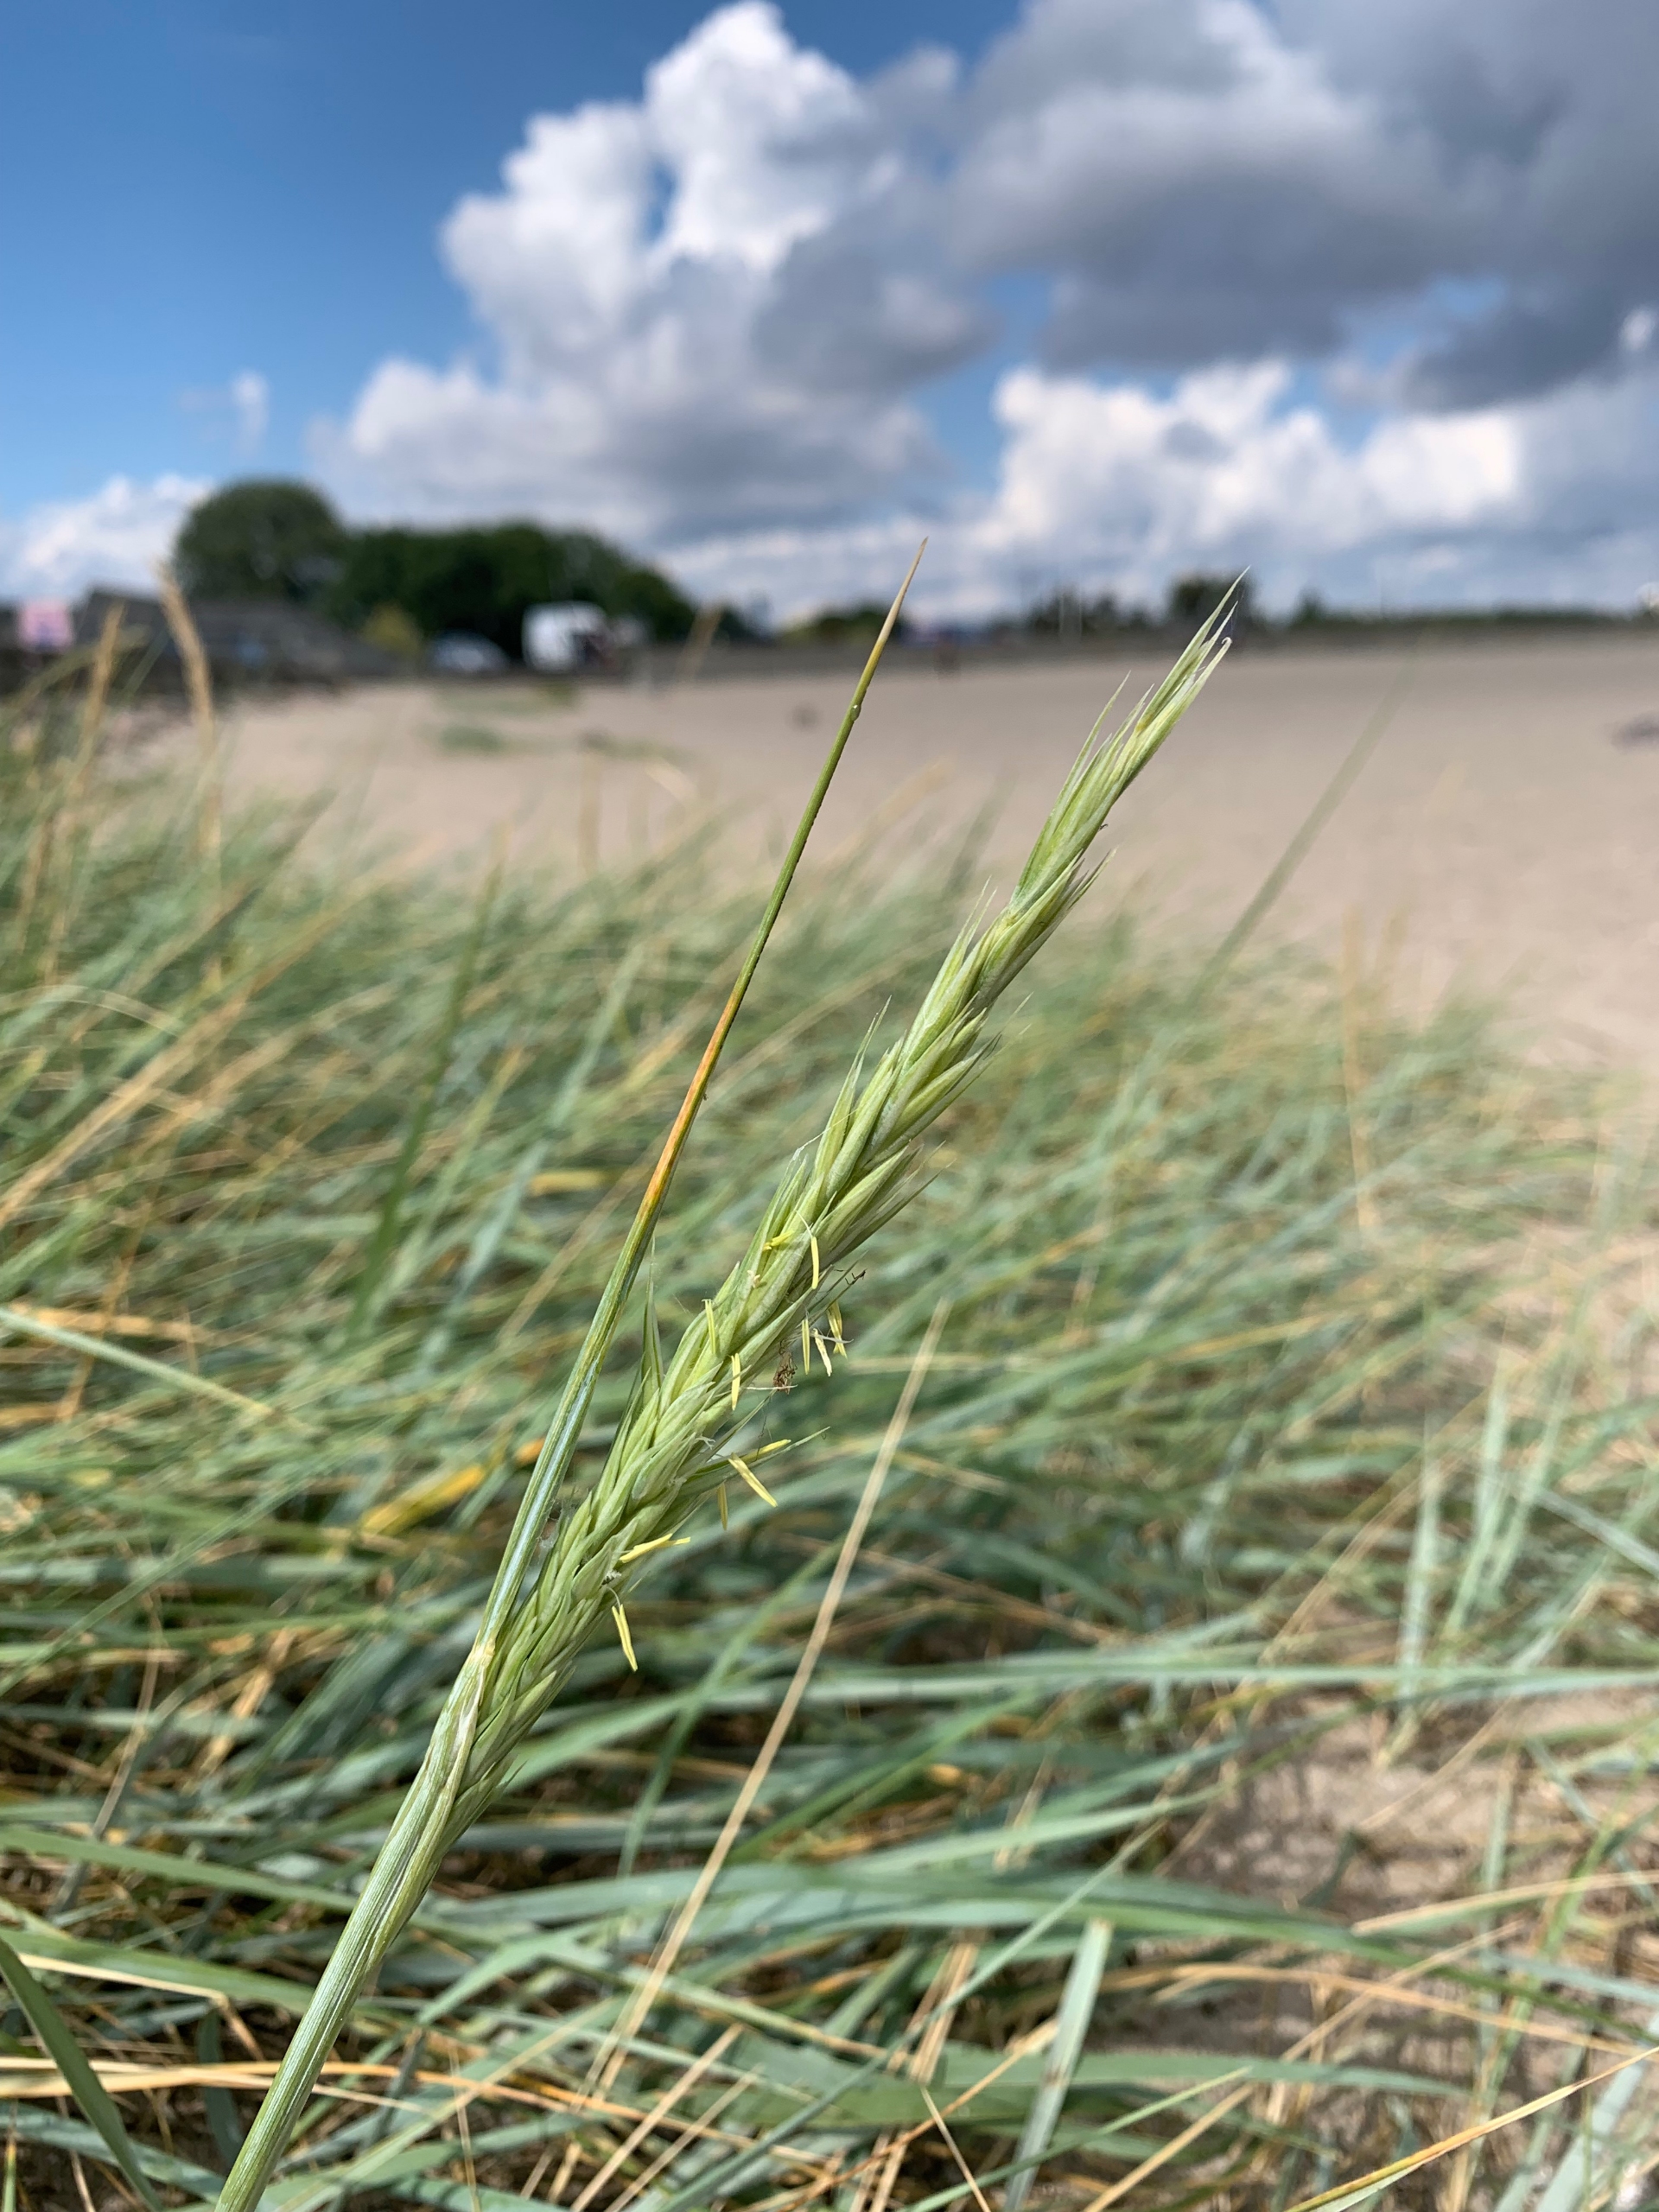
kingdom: Plantae
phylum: Tracheophyta
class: Liliopsida
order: Poales
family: Poaceae
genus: Leymus
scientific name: Leymus arenarius
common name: Marehalm
